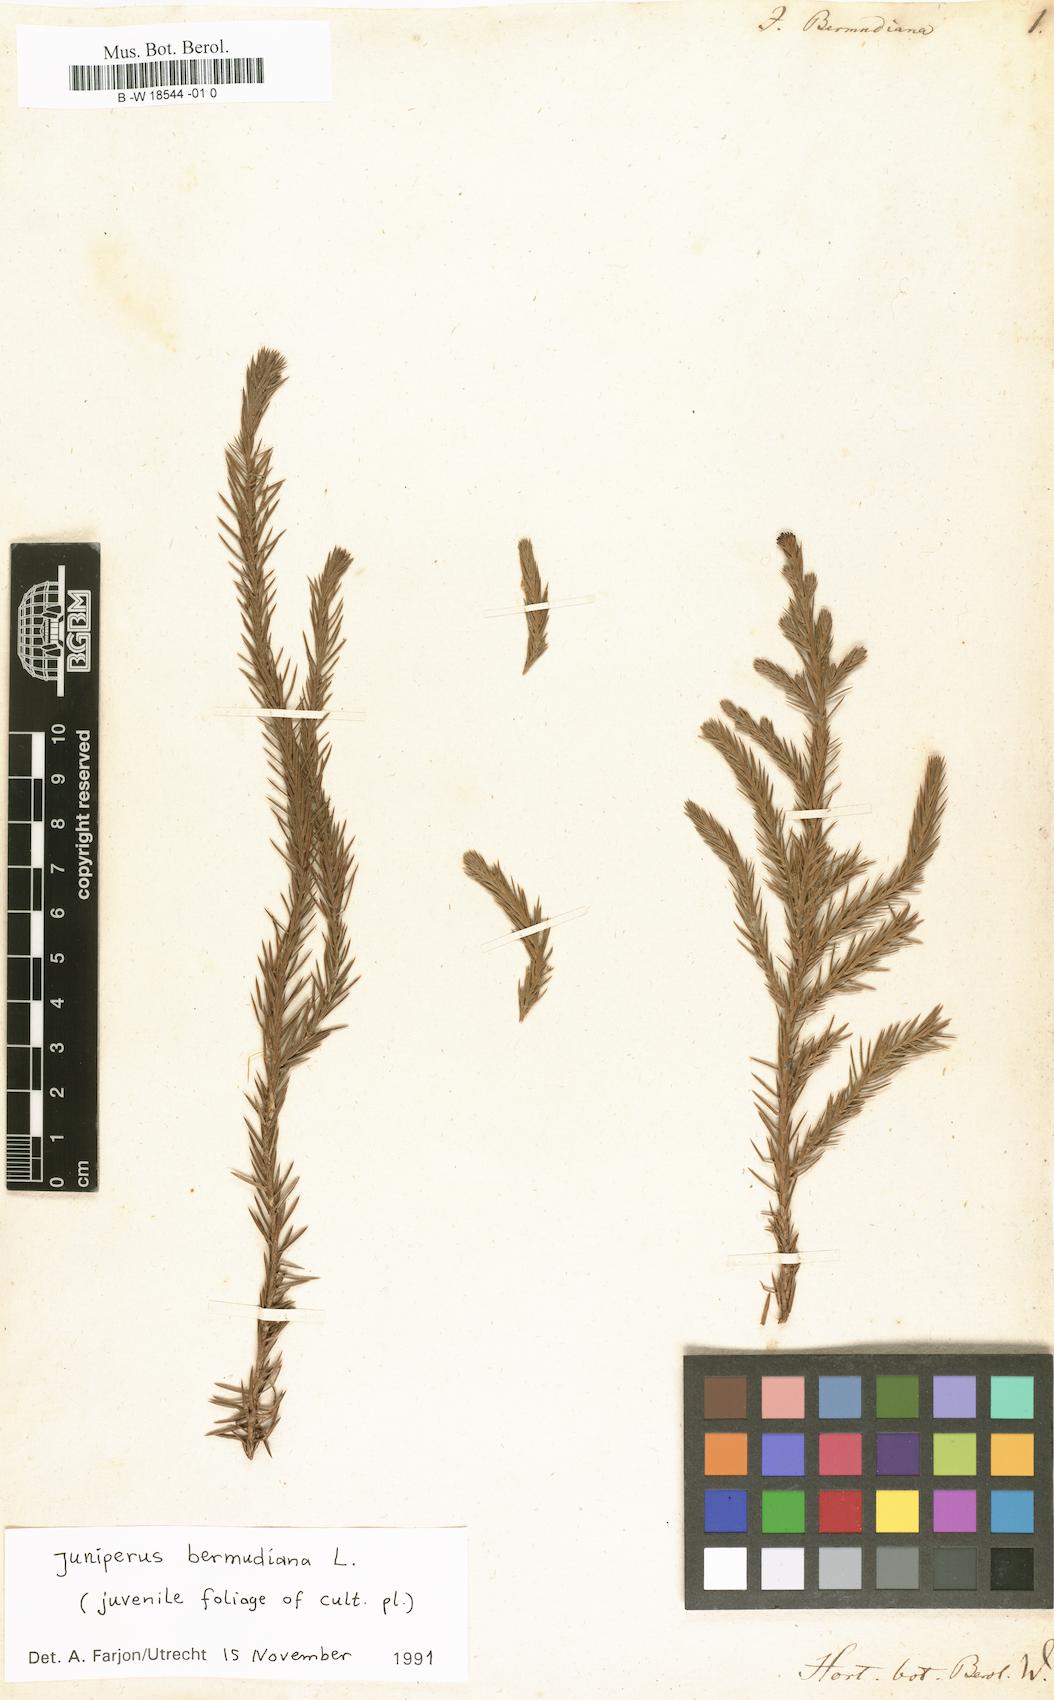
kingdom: Plantae
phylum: Tracheophyta
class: Pinopsida
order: Pinales
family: Cupressaceae
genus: Juniperus
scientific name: Juniperus bermudiana
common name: Bermuda juniper
